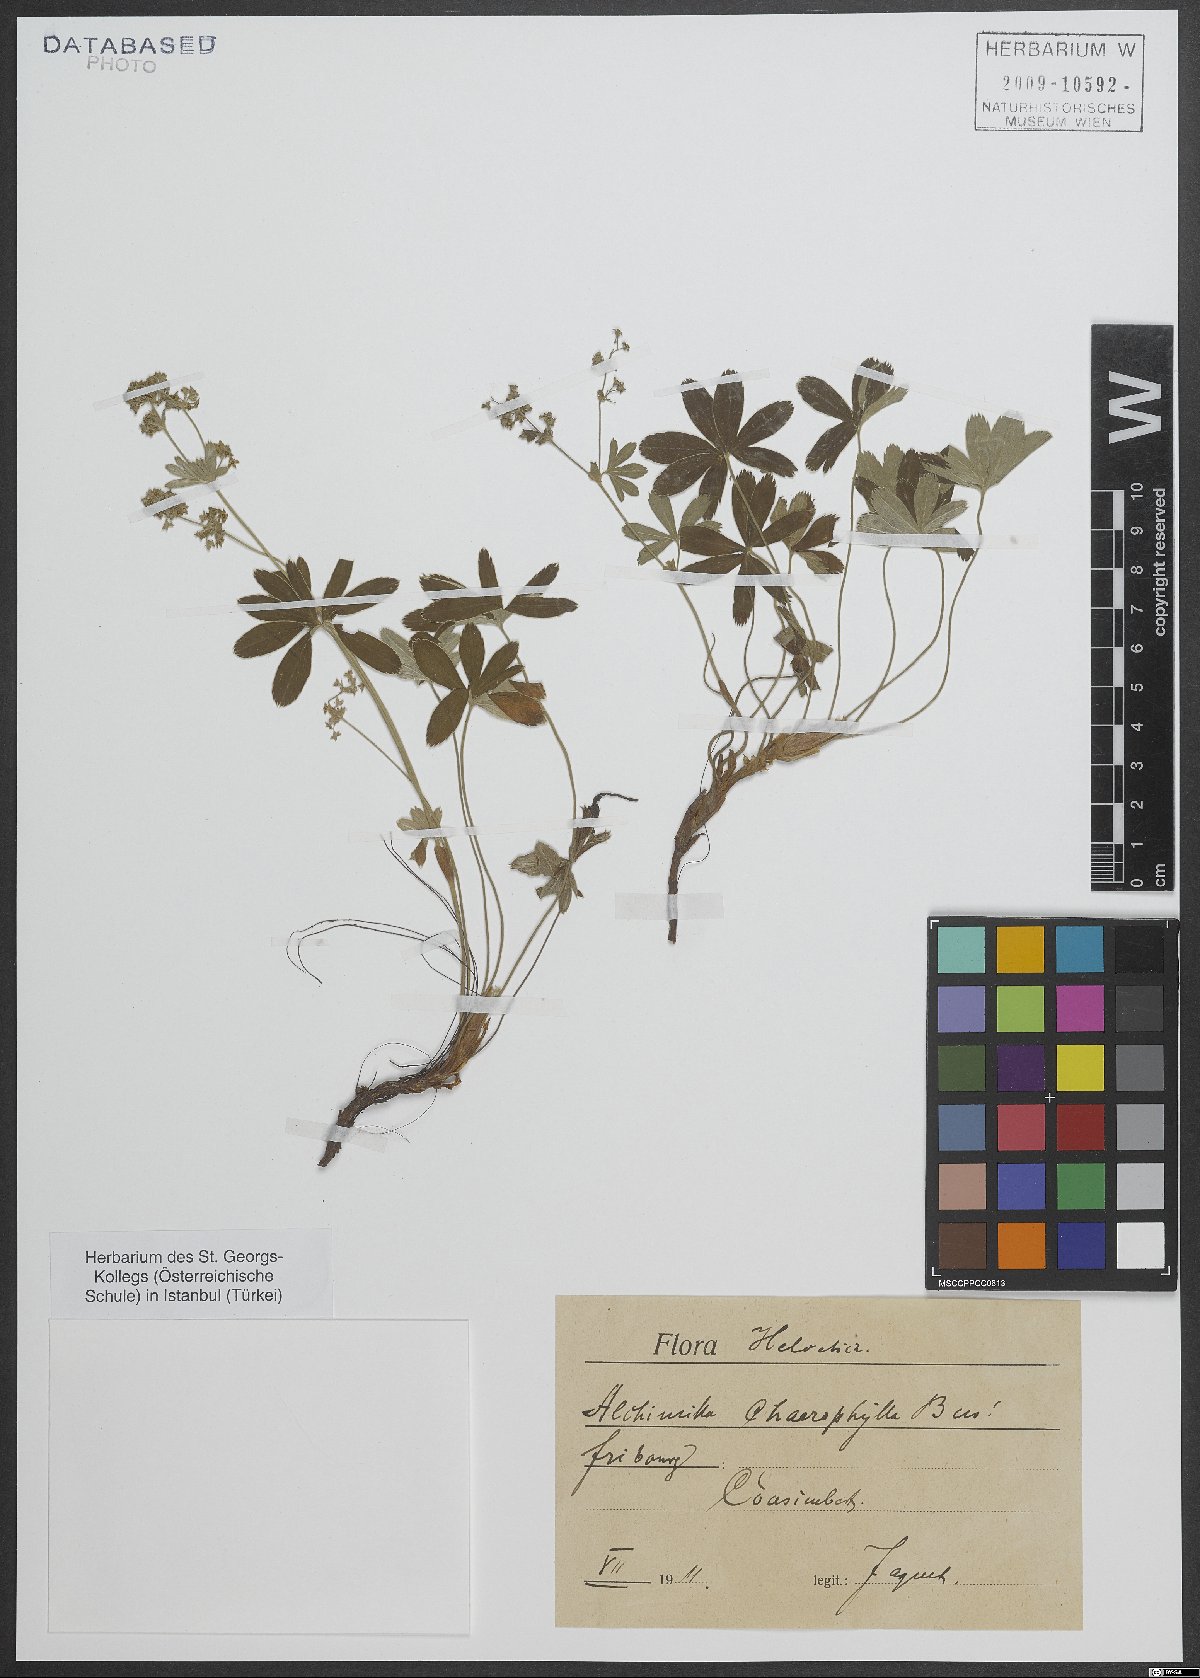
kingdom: Plantae
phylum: Tracheophyta
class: Magnoliopsida
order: Rosales
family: Rosaceae
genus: Alchemilla
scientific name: Alchemilla chirophylla
